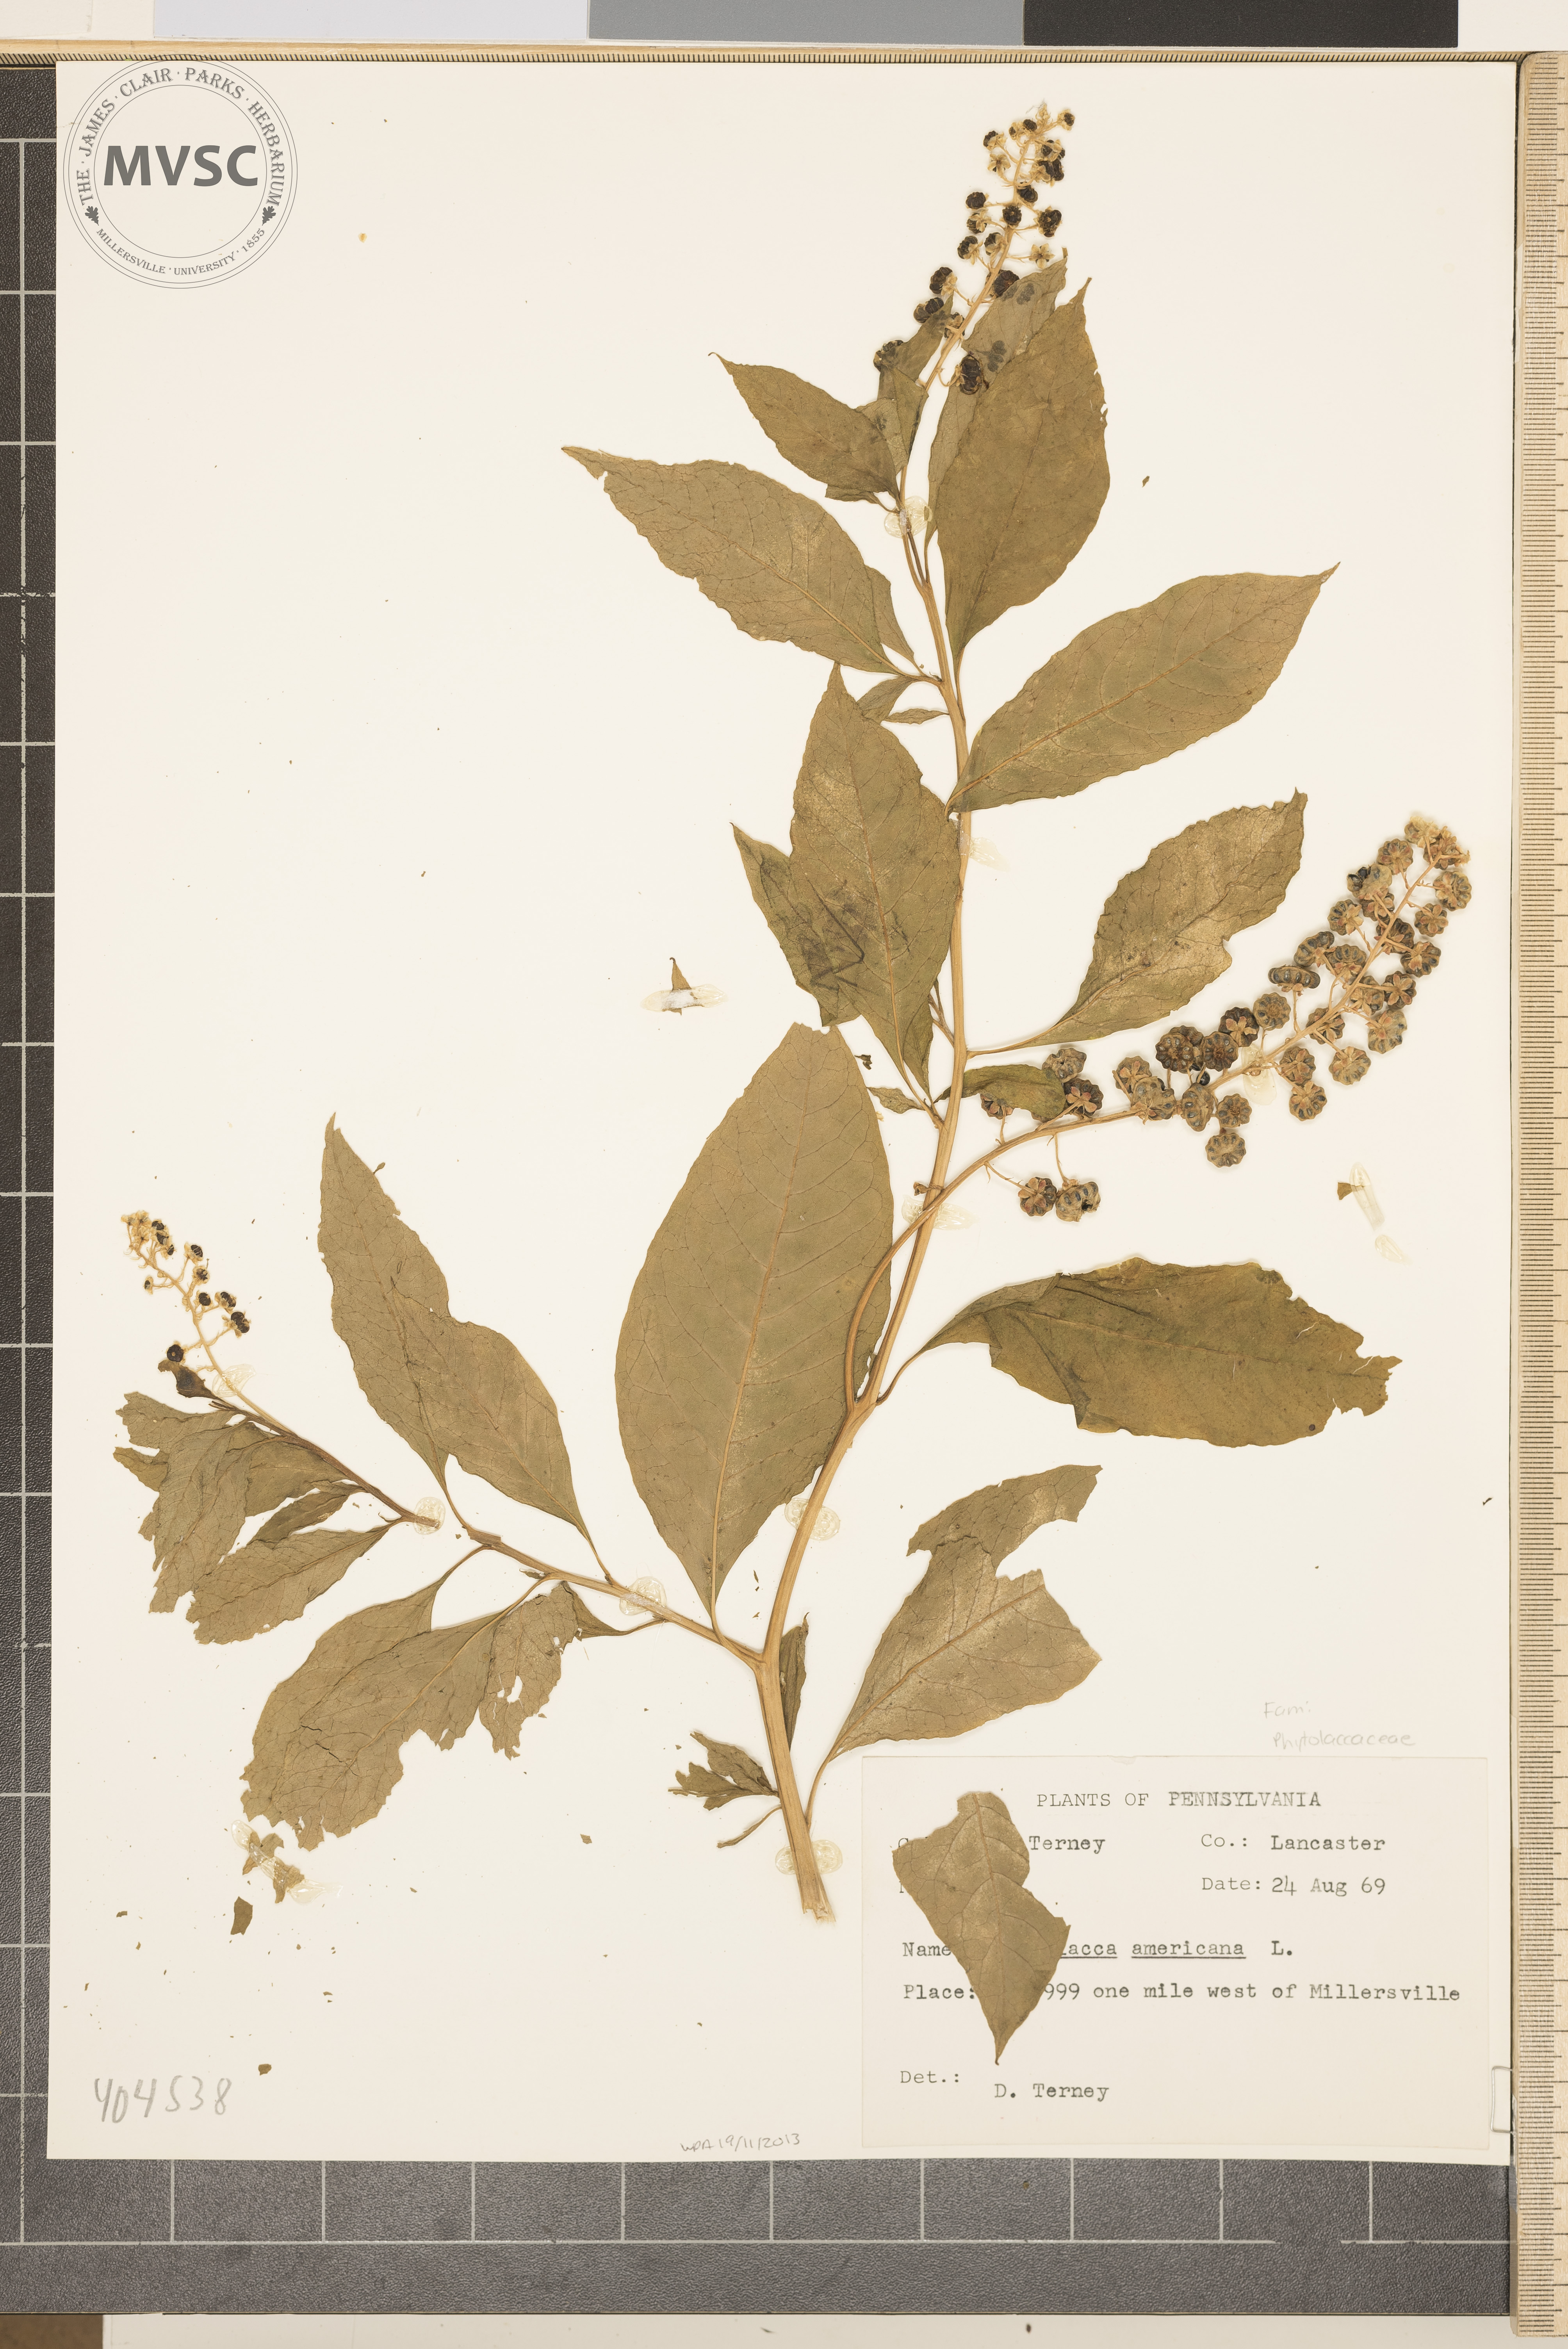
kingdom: Plantae
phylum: Tracheophyta
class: Magnoliopsida
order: Caryophyllales
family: Phytolaccaceae
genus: Phytolacca
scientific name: Phytolacca americana
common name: American pokeweed
